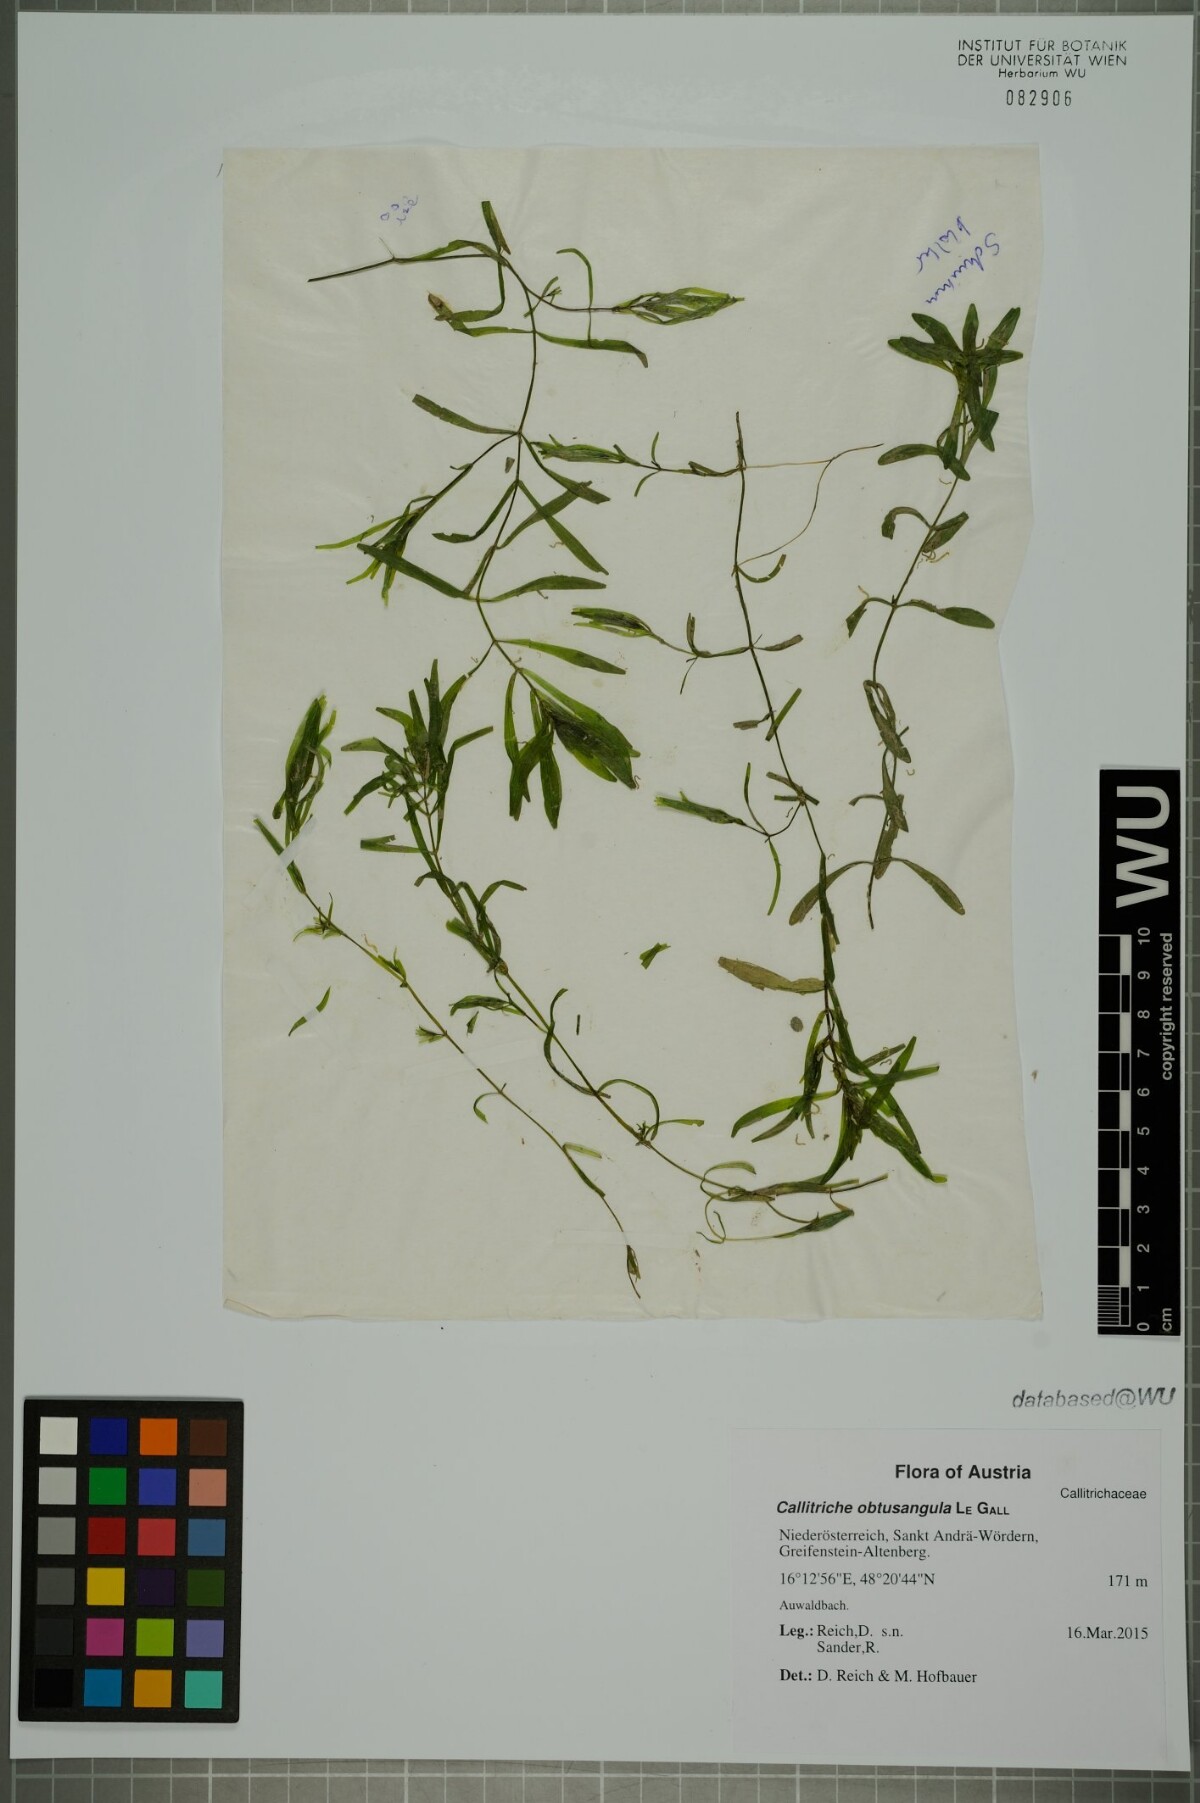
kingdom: Plantae
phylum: Tracheophyta
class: Magnoliopsida
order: Lamiales
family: Plantaginaceae
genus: Callitriche
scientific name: Callitriche obtusangula
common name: Blunt-fruited water-starwort
